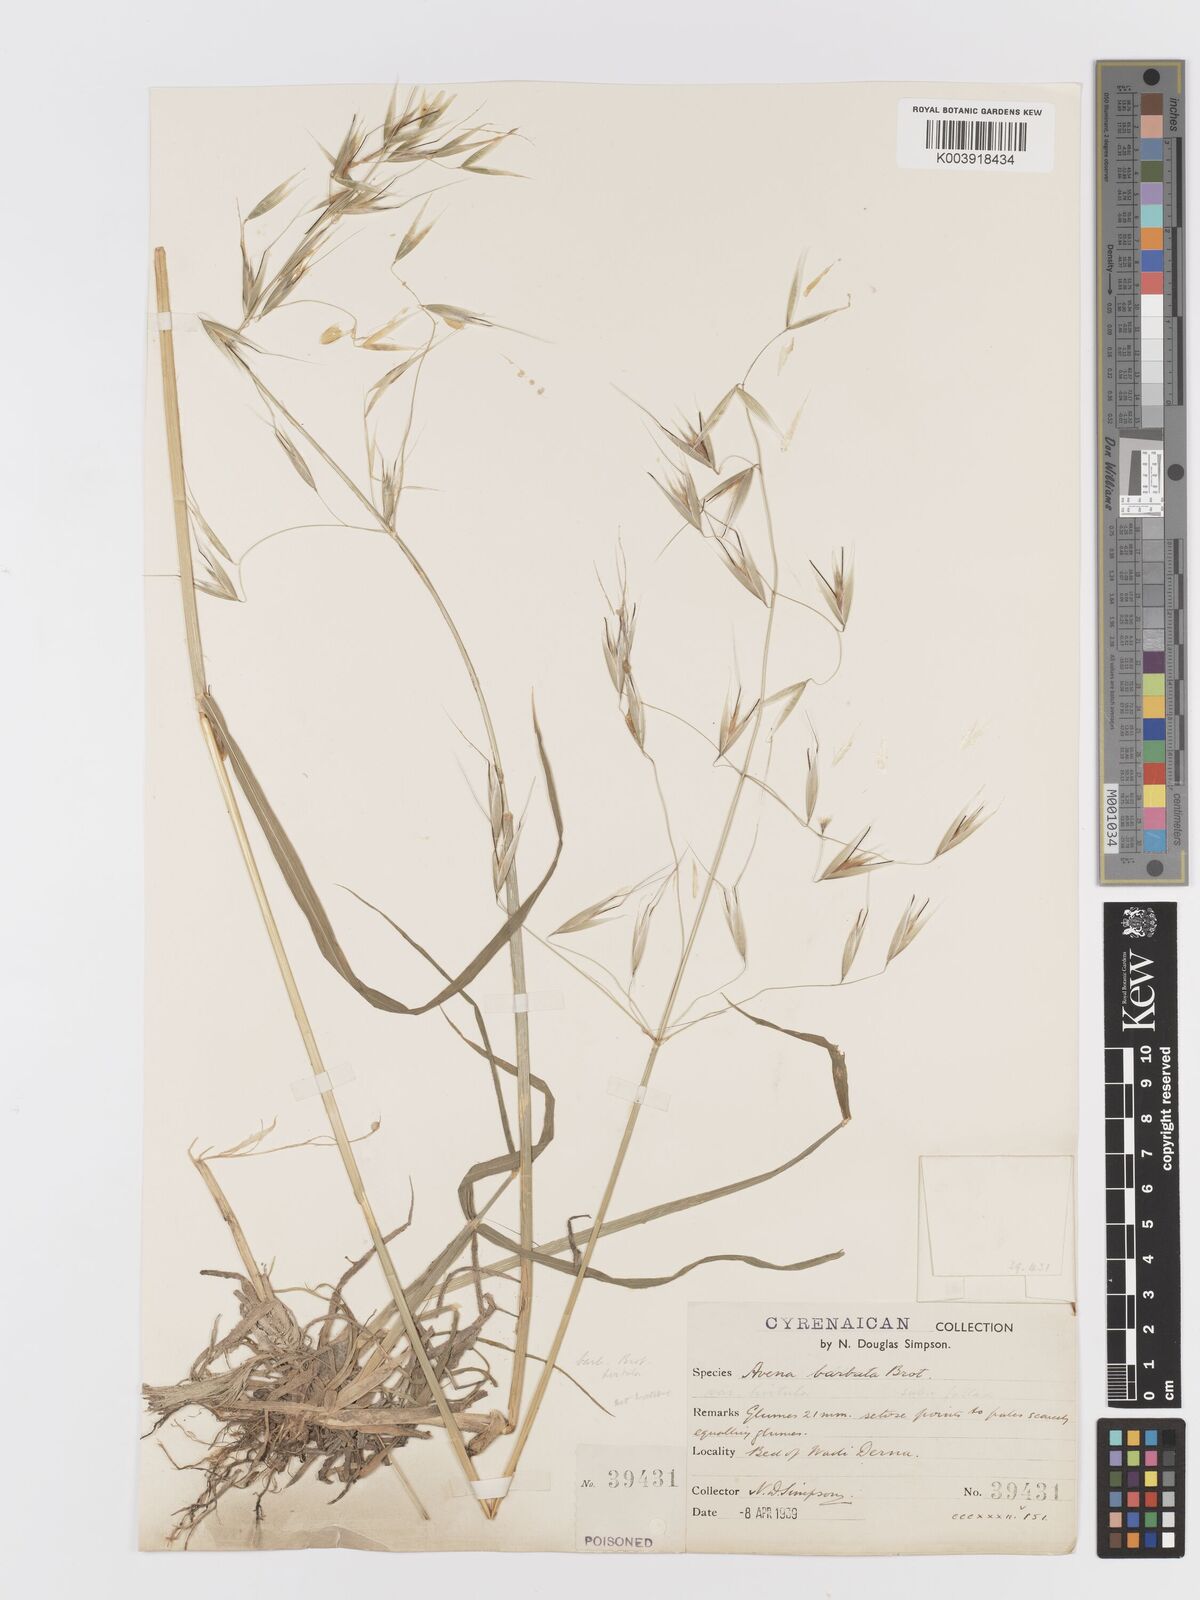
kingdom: Plantae
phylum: Tracheophyta
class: Liliopsida
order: Poales
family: Poaceae
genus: Avena
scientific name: Avena
